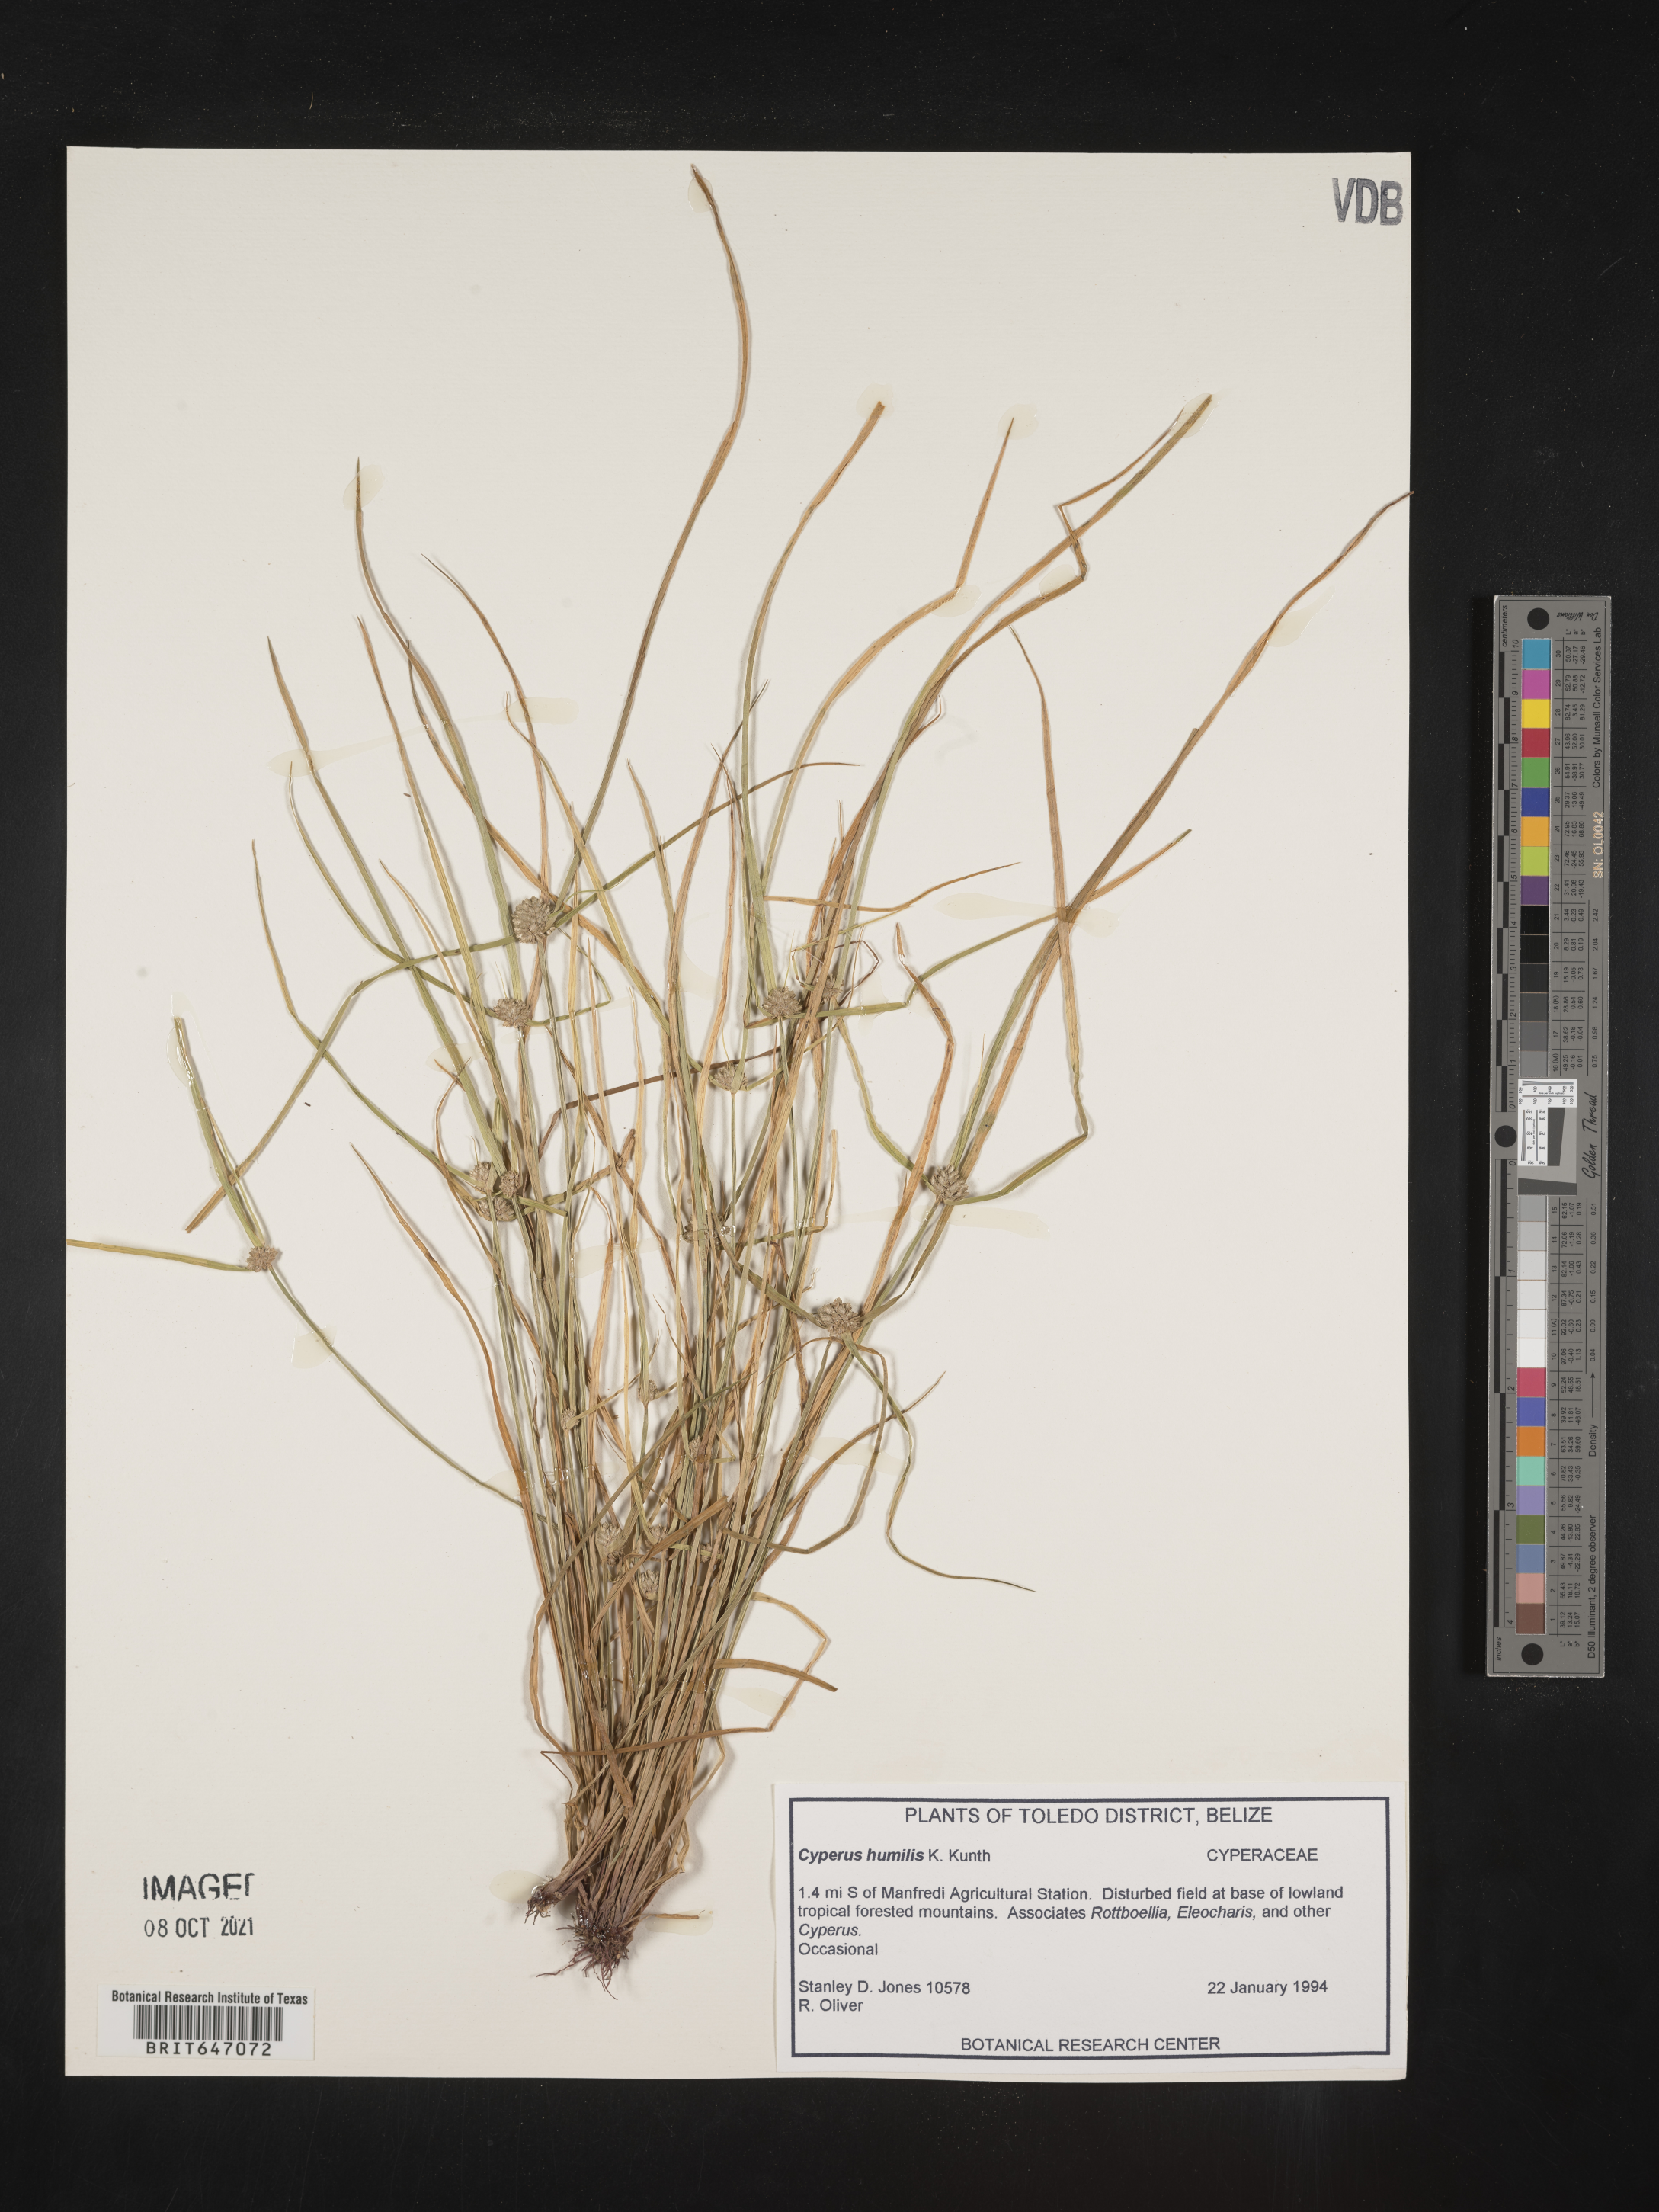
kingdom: Plantae
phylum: Tracheophyta
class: Liliopsida
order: Poales
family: Cyperaceae
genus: Cyperus
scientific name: Cyperus humilis
